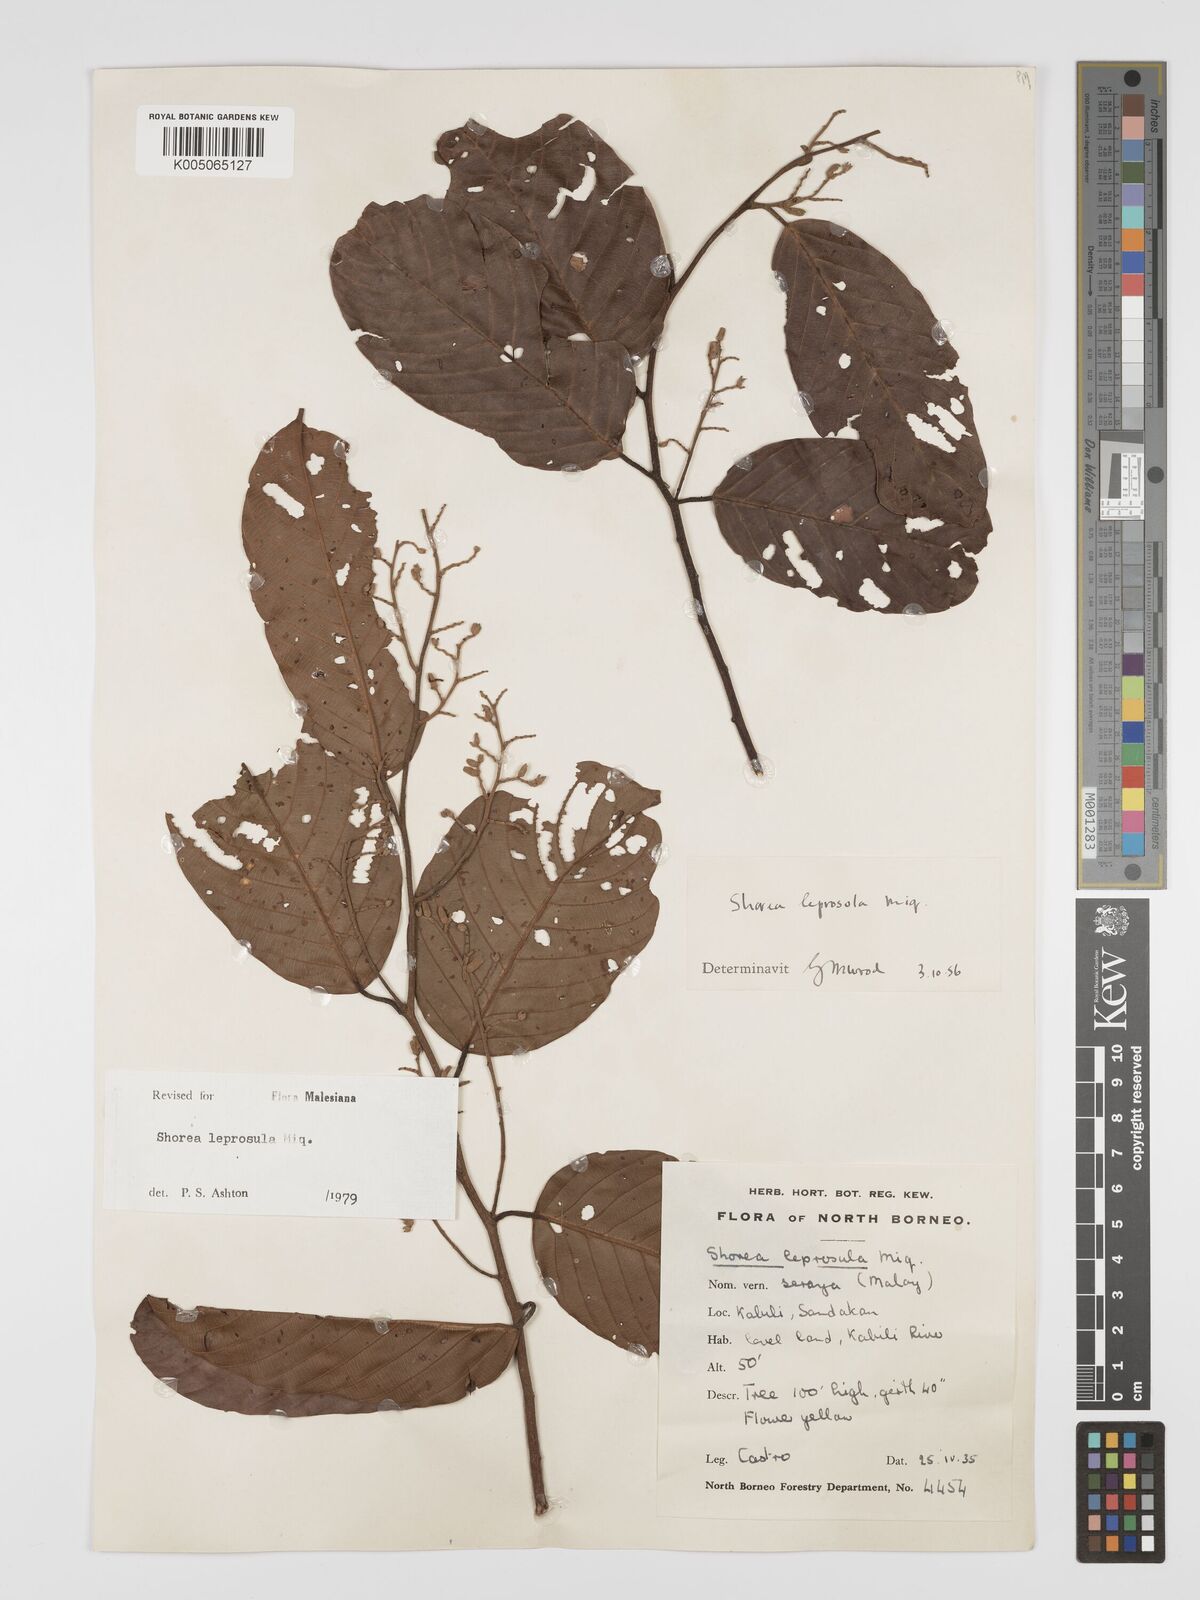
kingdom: Plantae
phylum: Tracheophyta
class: Magnoliopsida
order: Malvales
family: Dipterocarpaceae
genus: Shorea
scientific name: Shorea leprosula
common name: Light red meranti
